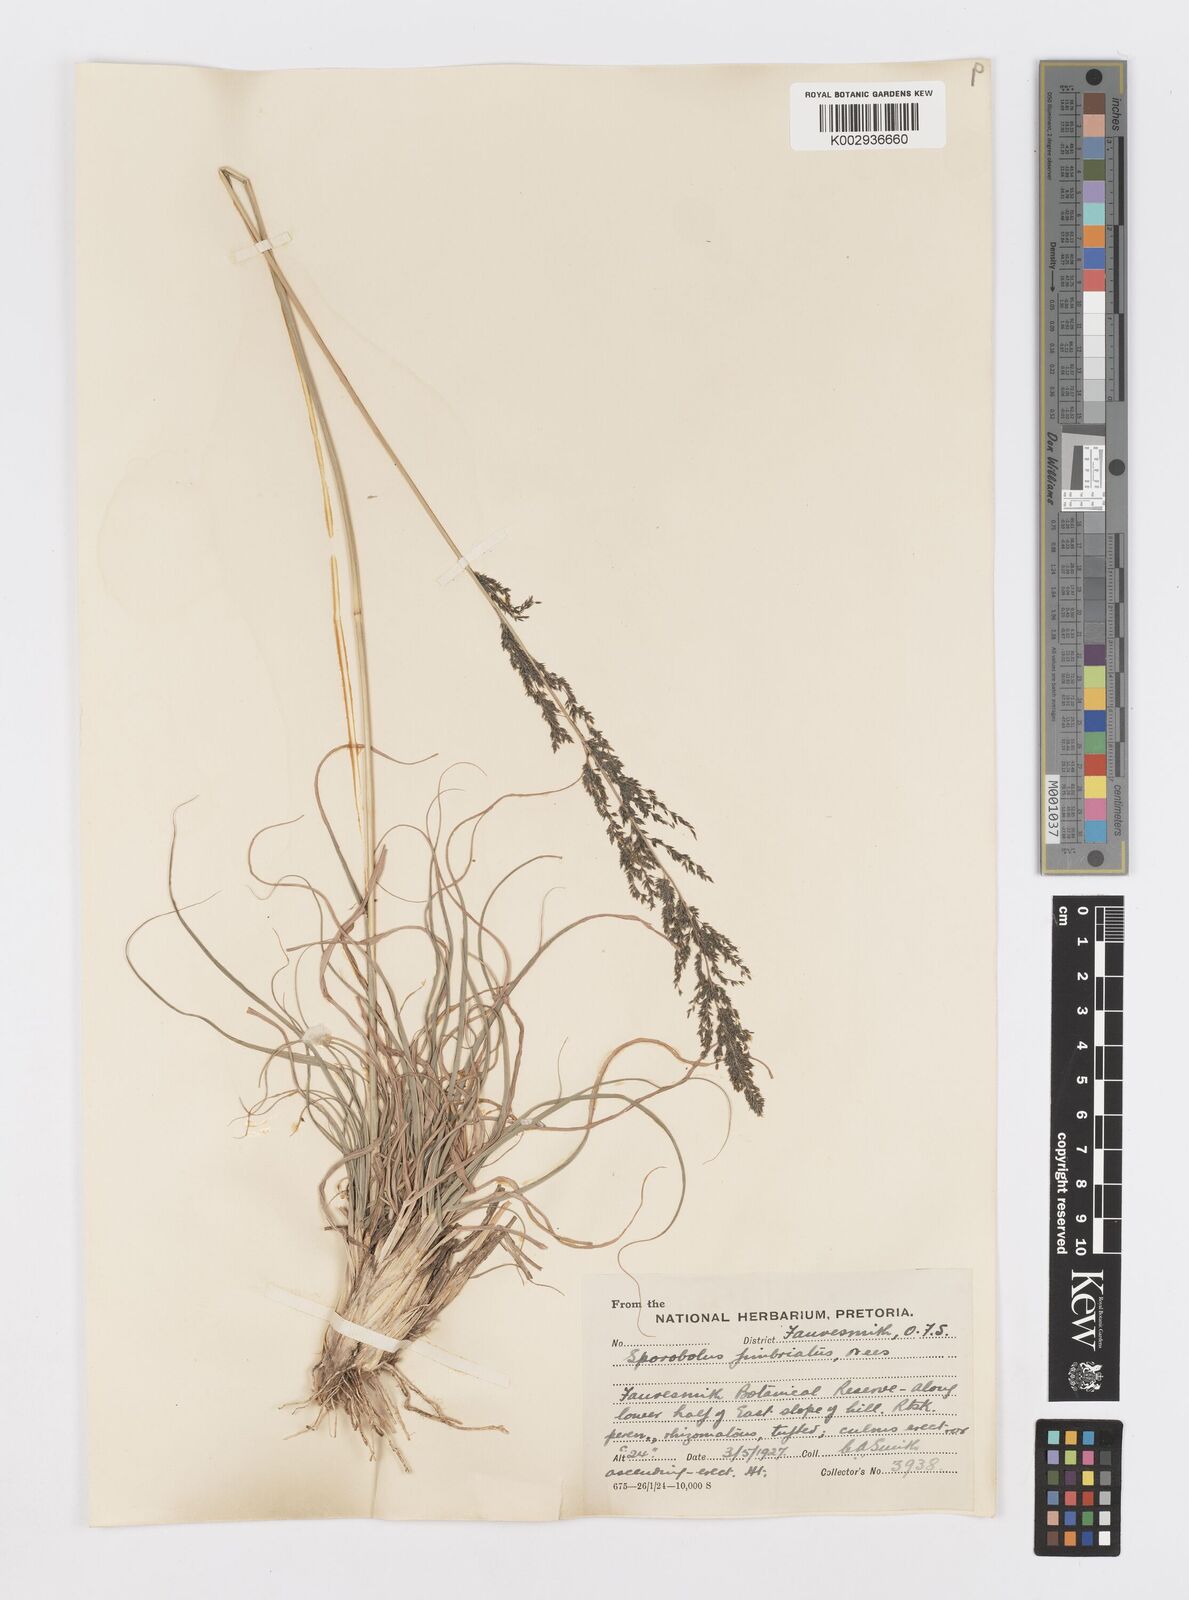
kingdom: Plantae
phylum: Tracheophyta
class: Liliopsida
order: Poales
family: Poaceae
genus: Sporobolus
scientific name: Sporobolus fimbriatus
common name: Fringed dropseed
